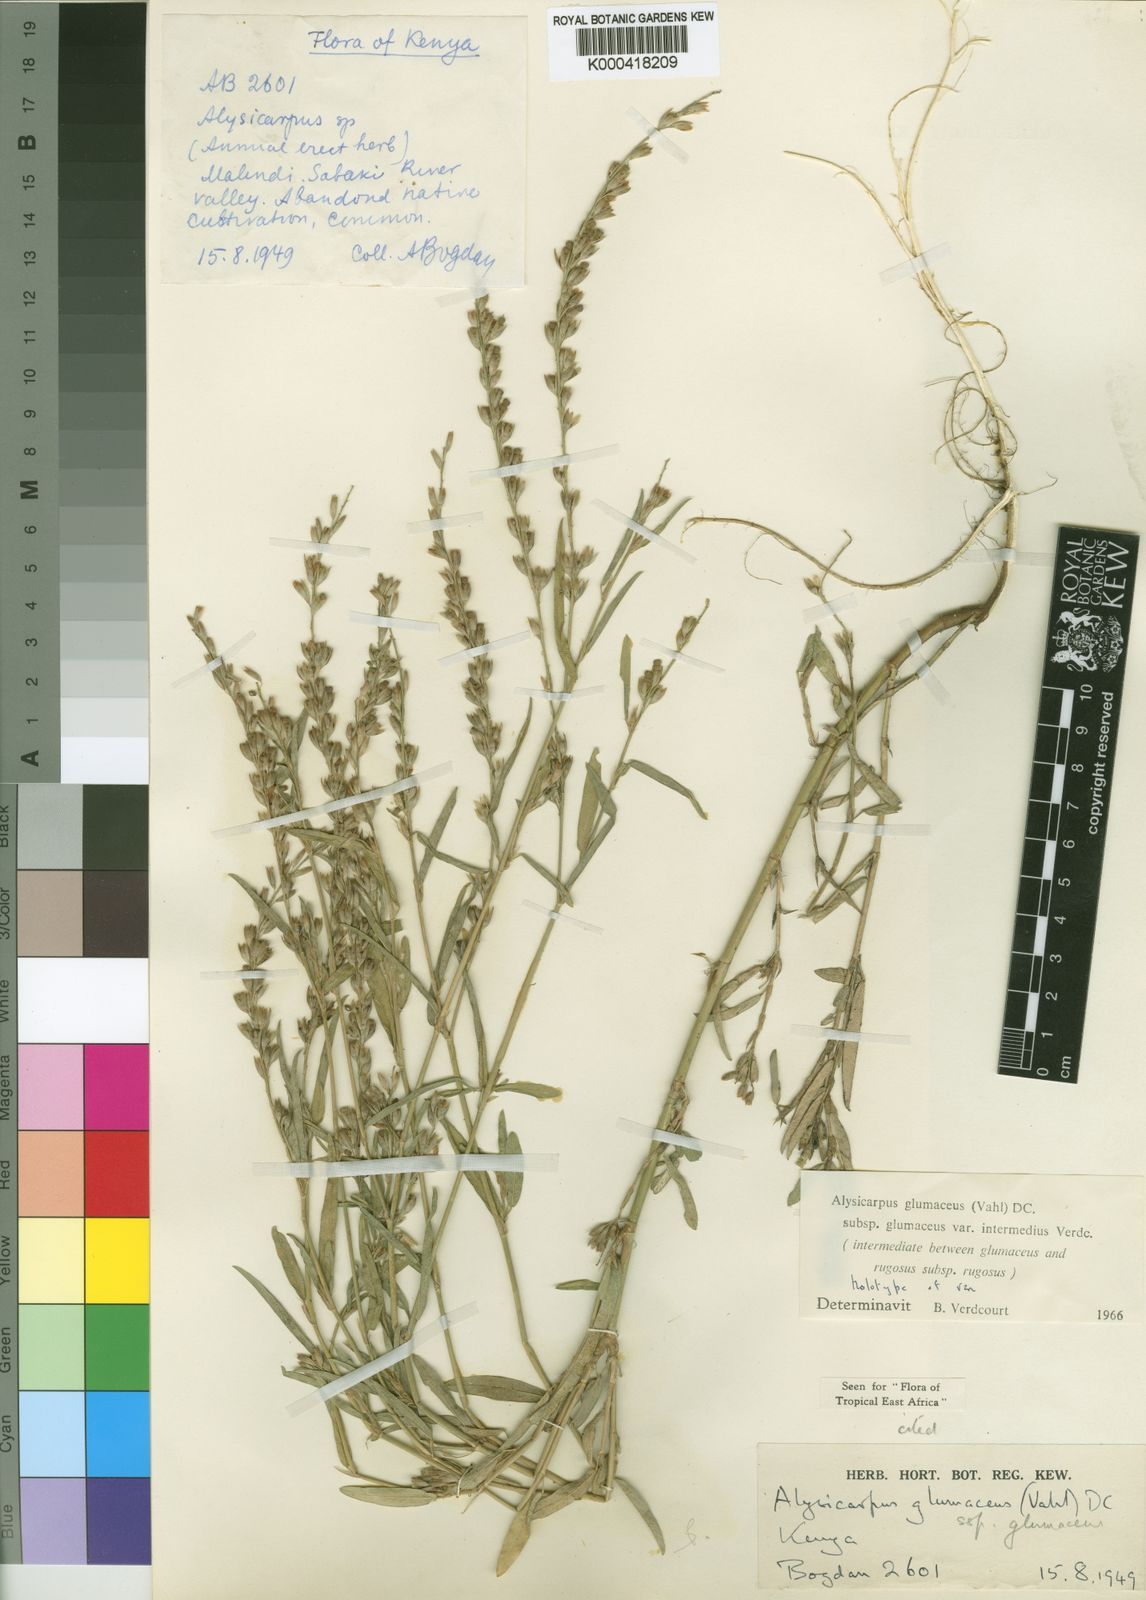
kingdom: Plantae
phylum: Tracheophyta
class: Magnoliopsida
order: Fabales
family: Fabaceae
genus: Alysicarpus
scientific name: Alysicarpus glumaceus
